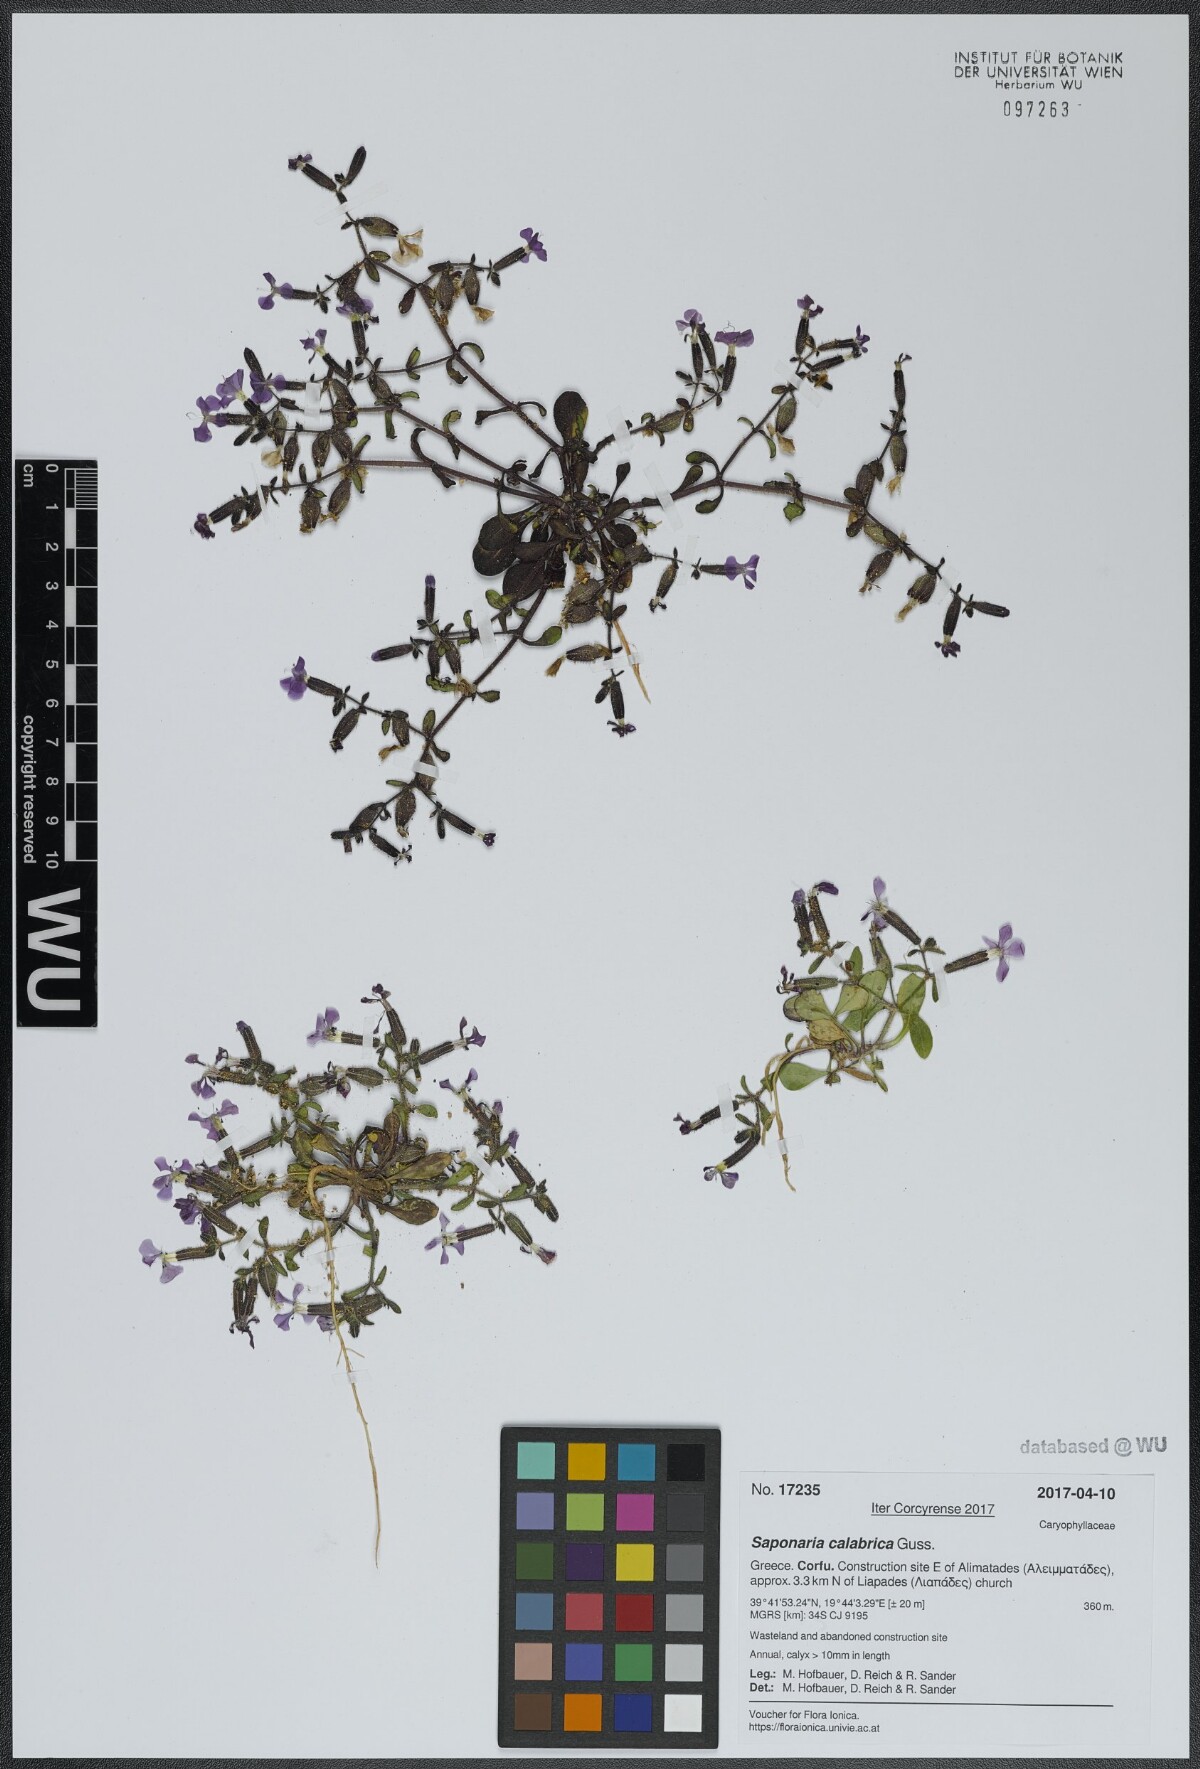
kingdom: Plantae
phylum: Tracheophyta
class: Magnoliopsida
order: Caryophyllales
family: Caryophyllaceae
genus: Saponaria
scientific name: Saponaria calabrica
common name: Adriatic soapwort
